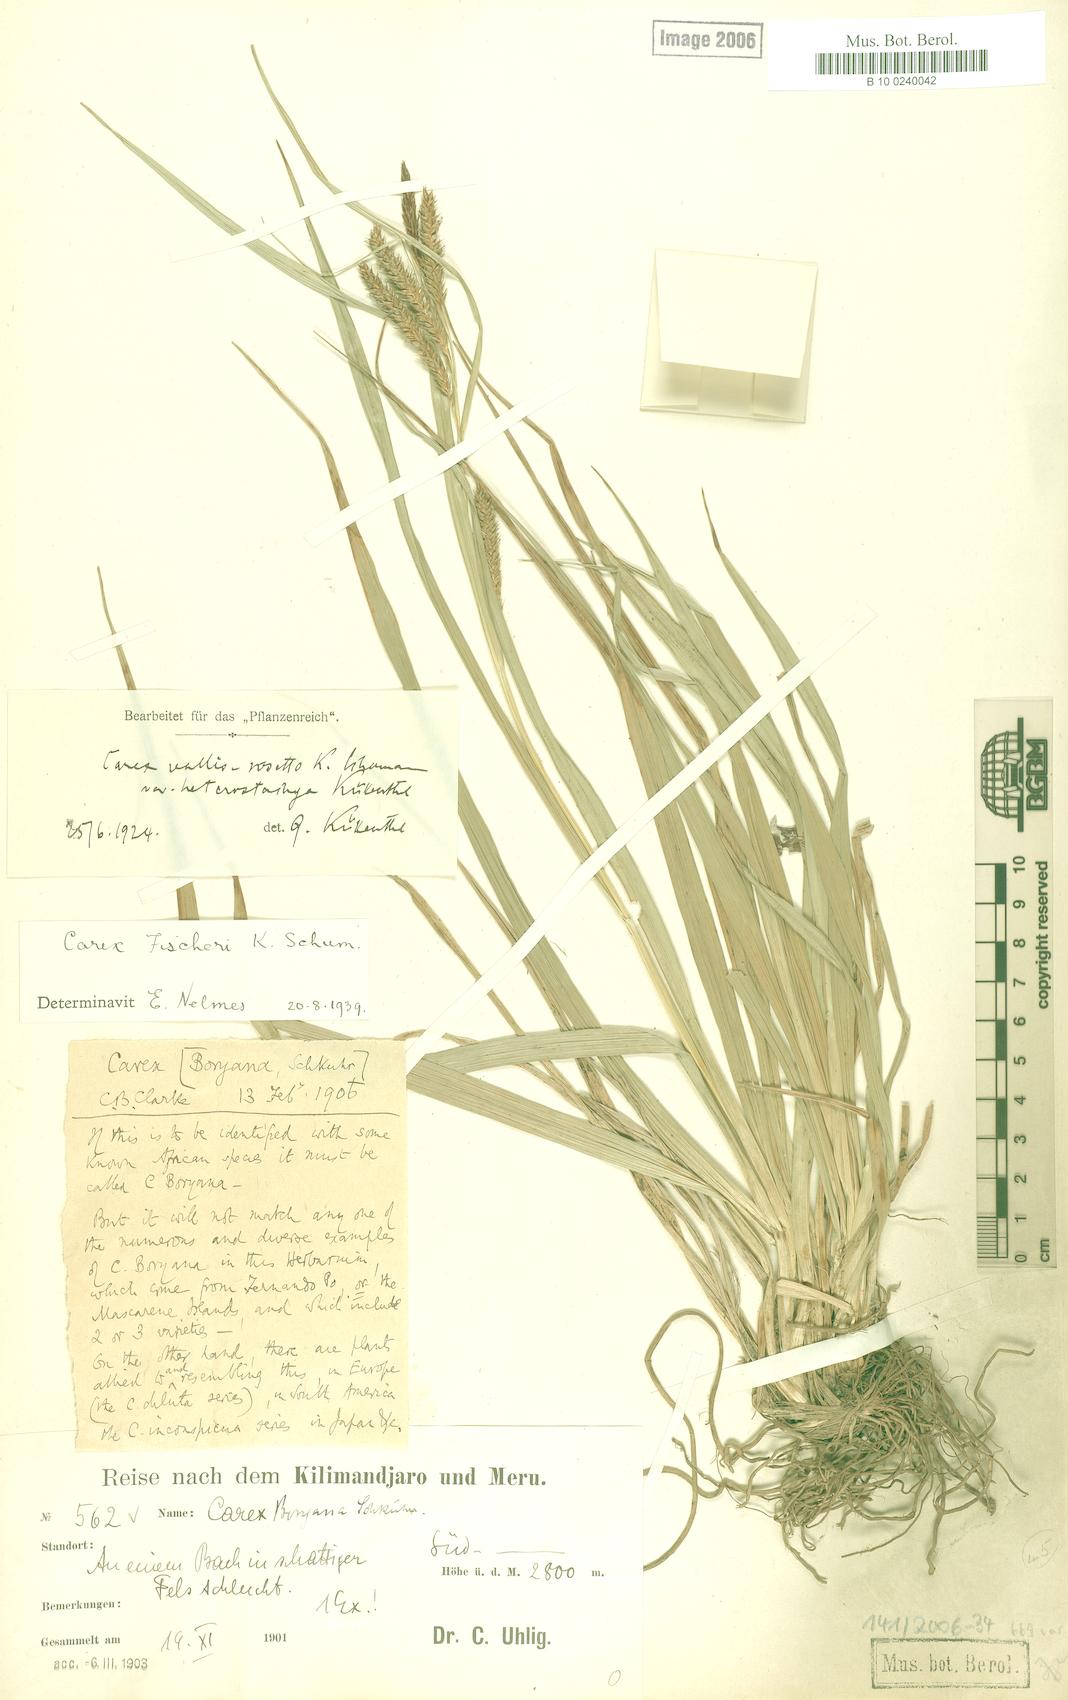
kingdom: Plantae
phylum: Tracheophyta
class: Liliopsida
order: Poales
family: Cyperaceae
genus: Carex
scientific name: Carex fischeri
